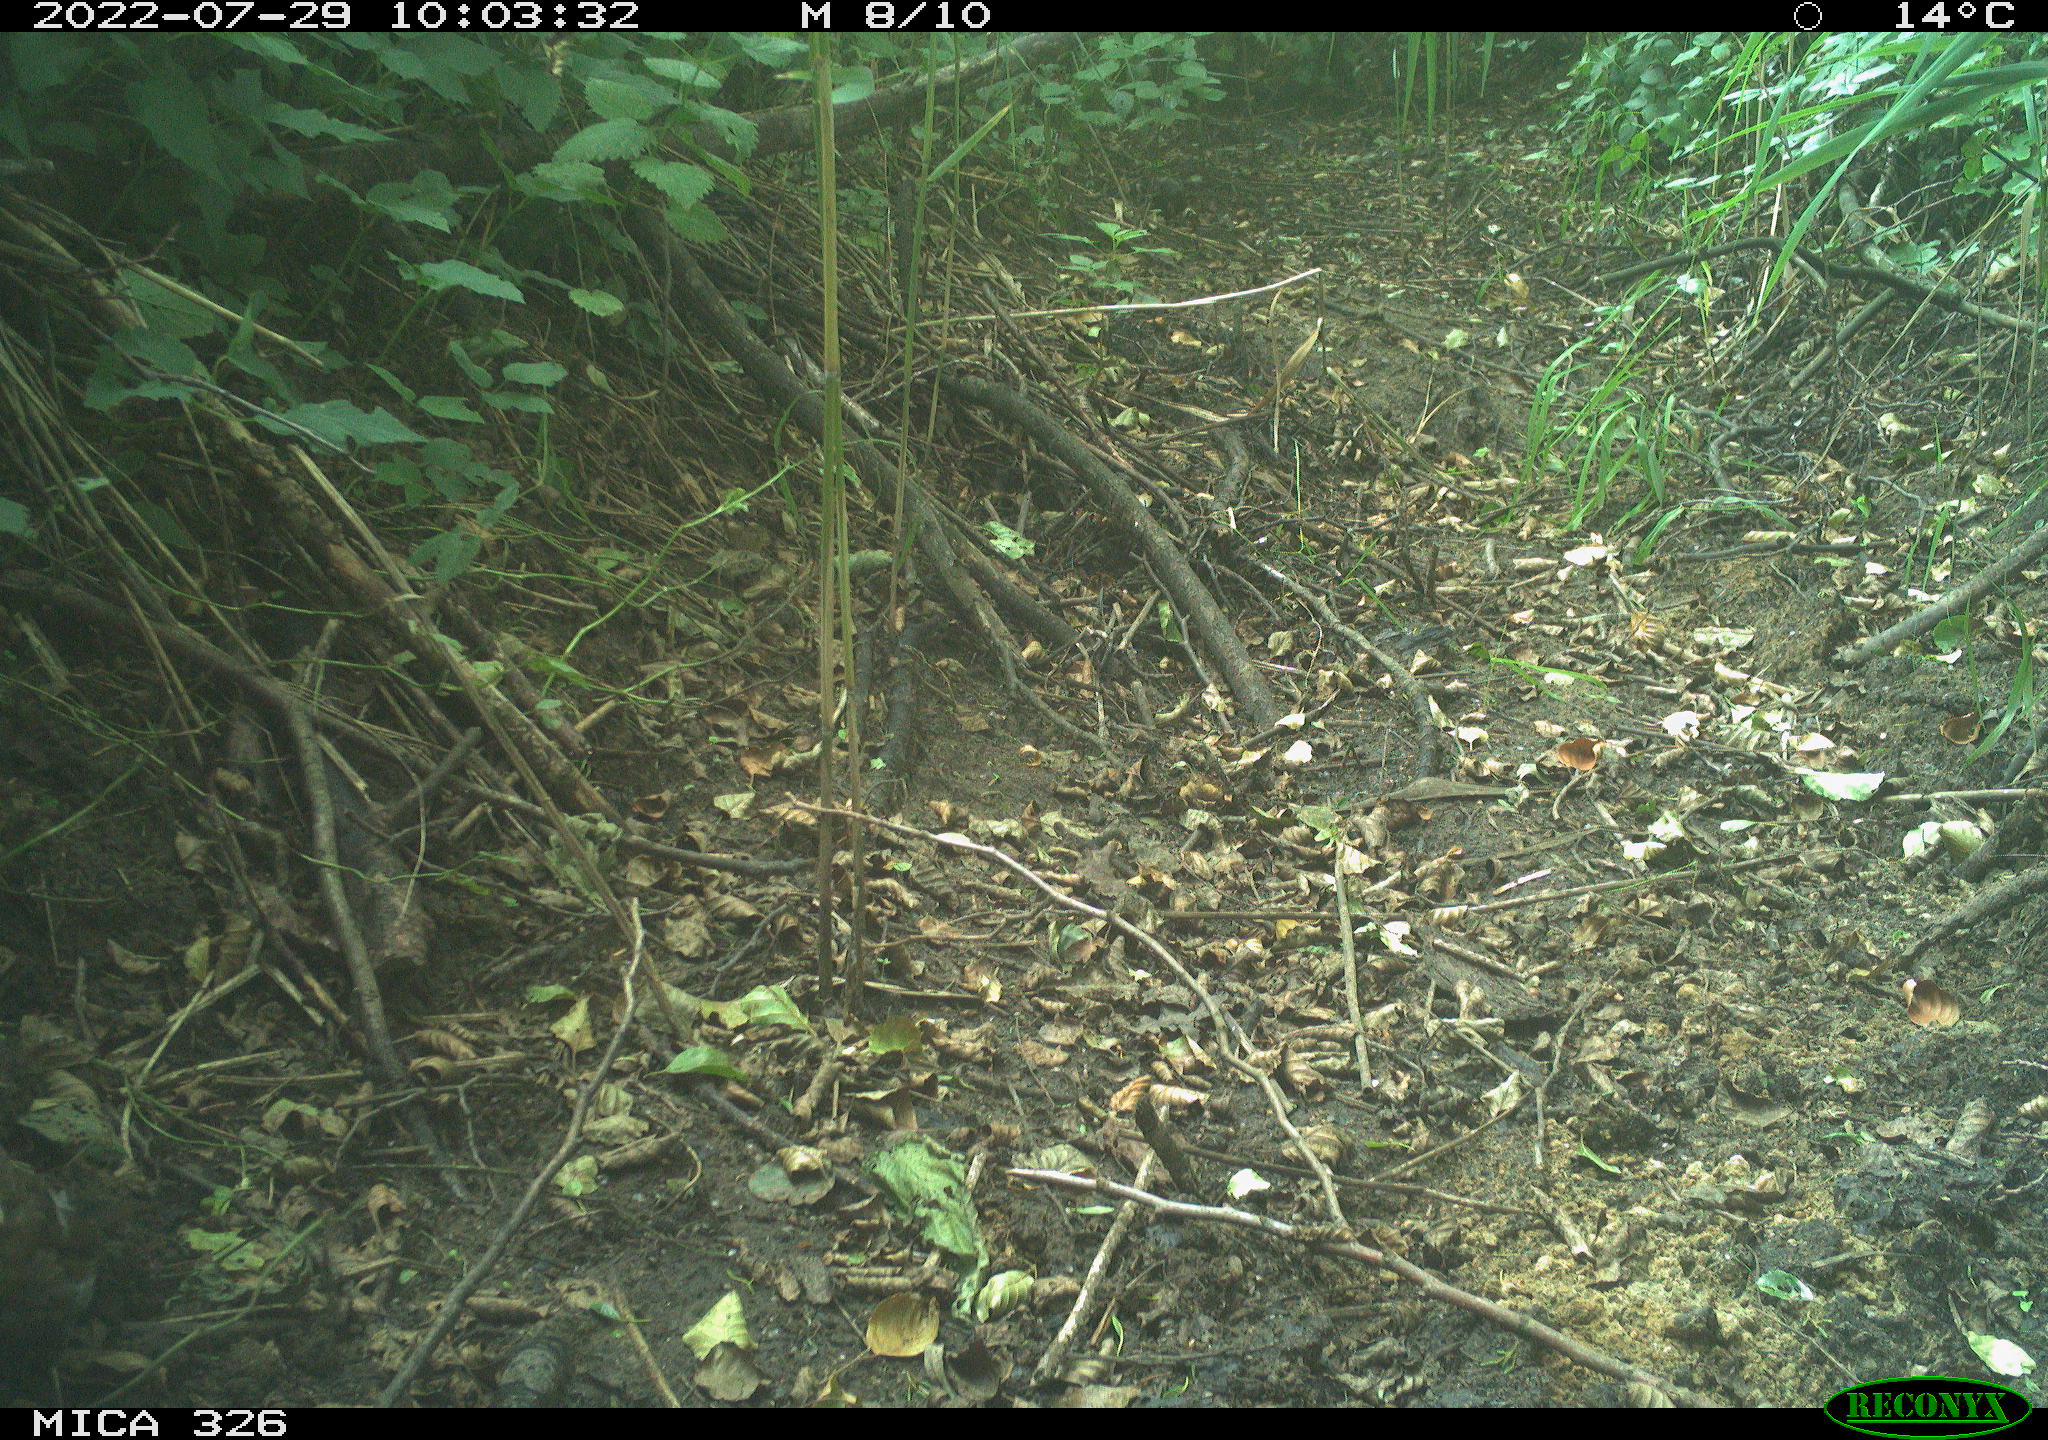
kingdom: Animalia
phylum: Chordata
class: Aves
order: Passeriformes
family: Prunellidae
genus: Prunella
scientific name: Prunella modularis
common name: Dunnock
